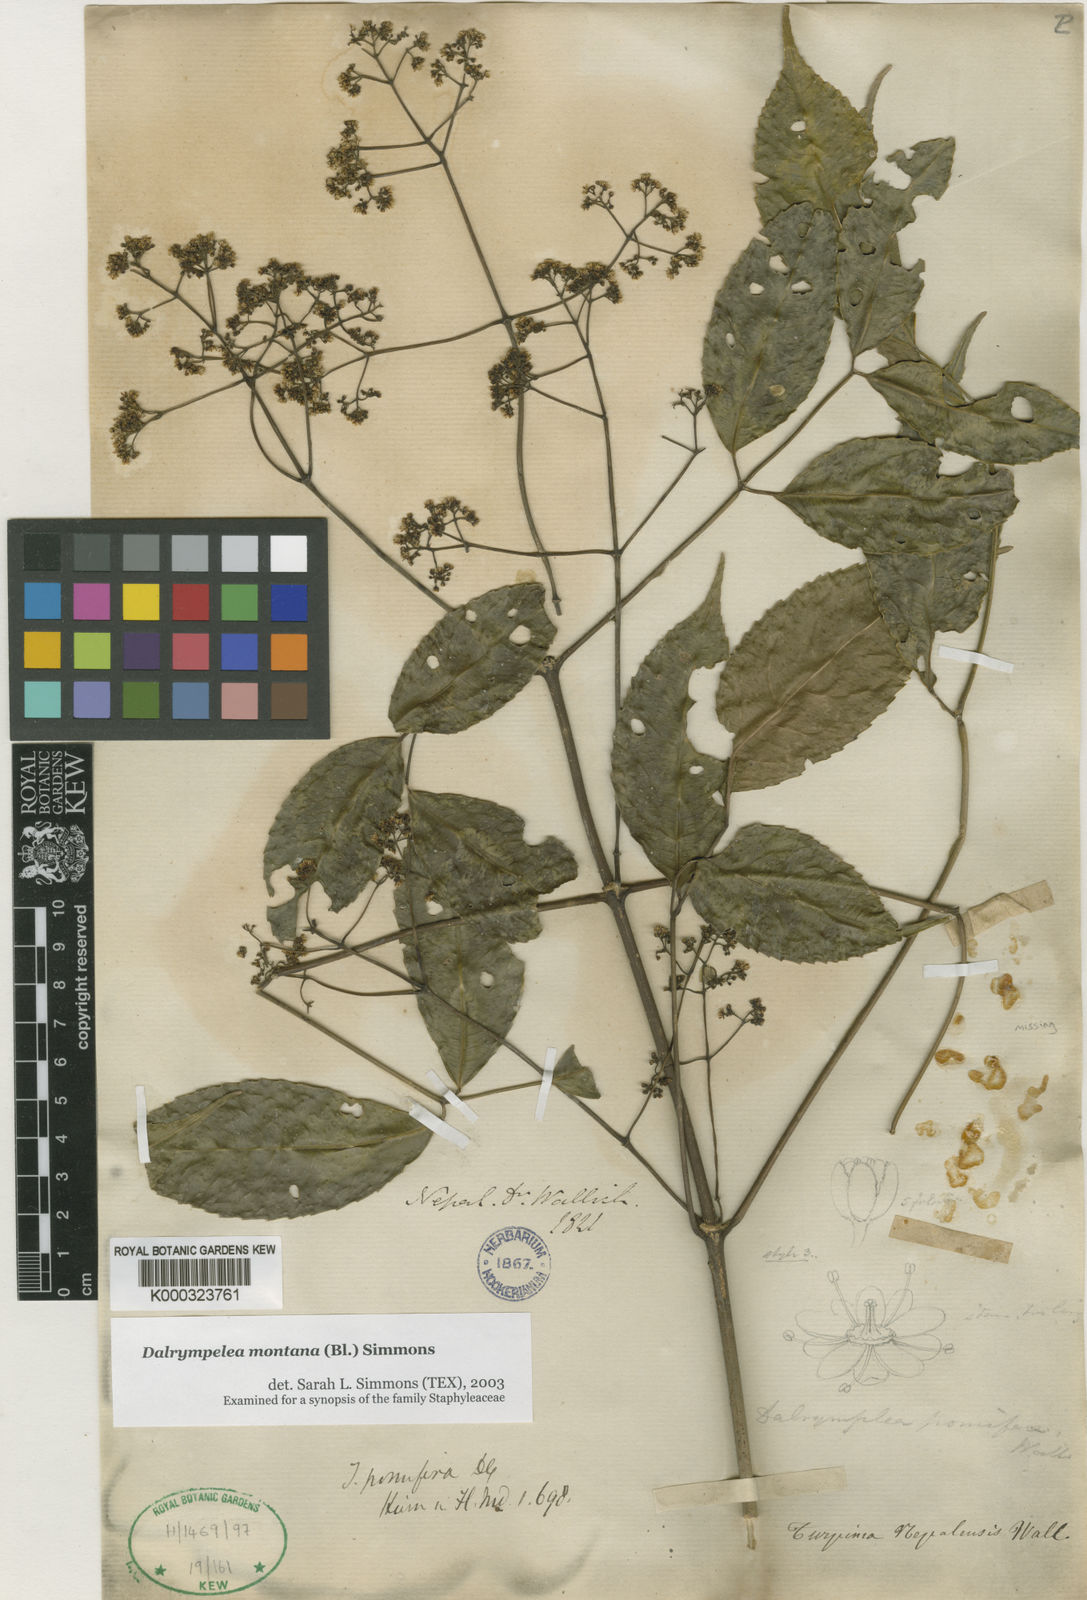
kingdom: Plantae
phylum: Tracheophyta
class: Magnoliopsida
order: Crossosomatales
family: Staphyleaceae
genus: Turpinia
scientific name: Turpinia
